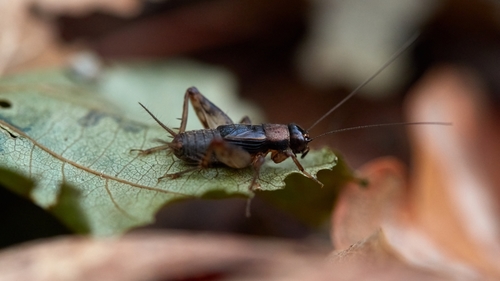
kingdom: Animalia
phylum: Arthropoda
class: Insecta
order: Orthoptera
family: Trigonidiidae
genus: Nemobius
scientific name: Nemobius sylvestris
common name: Wood-cricket
